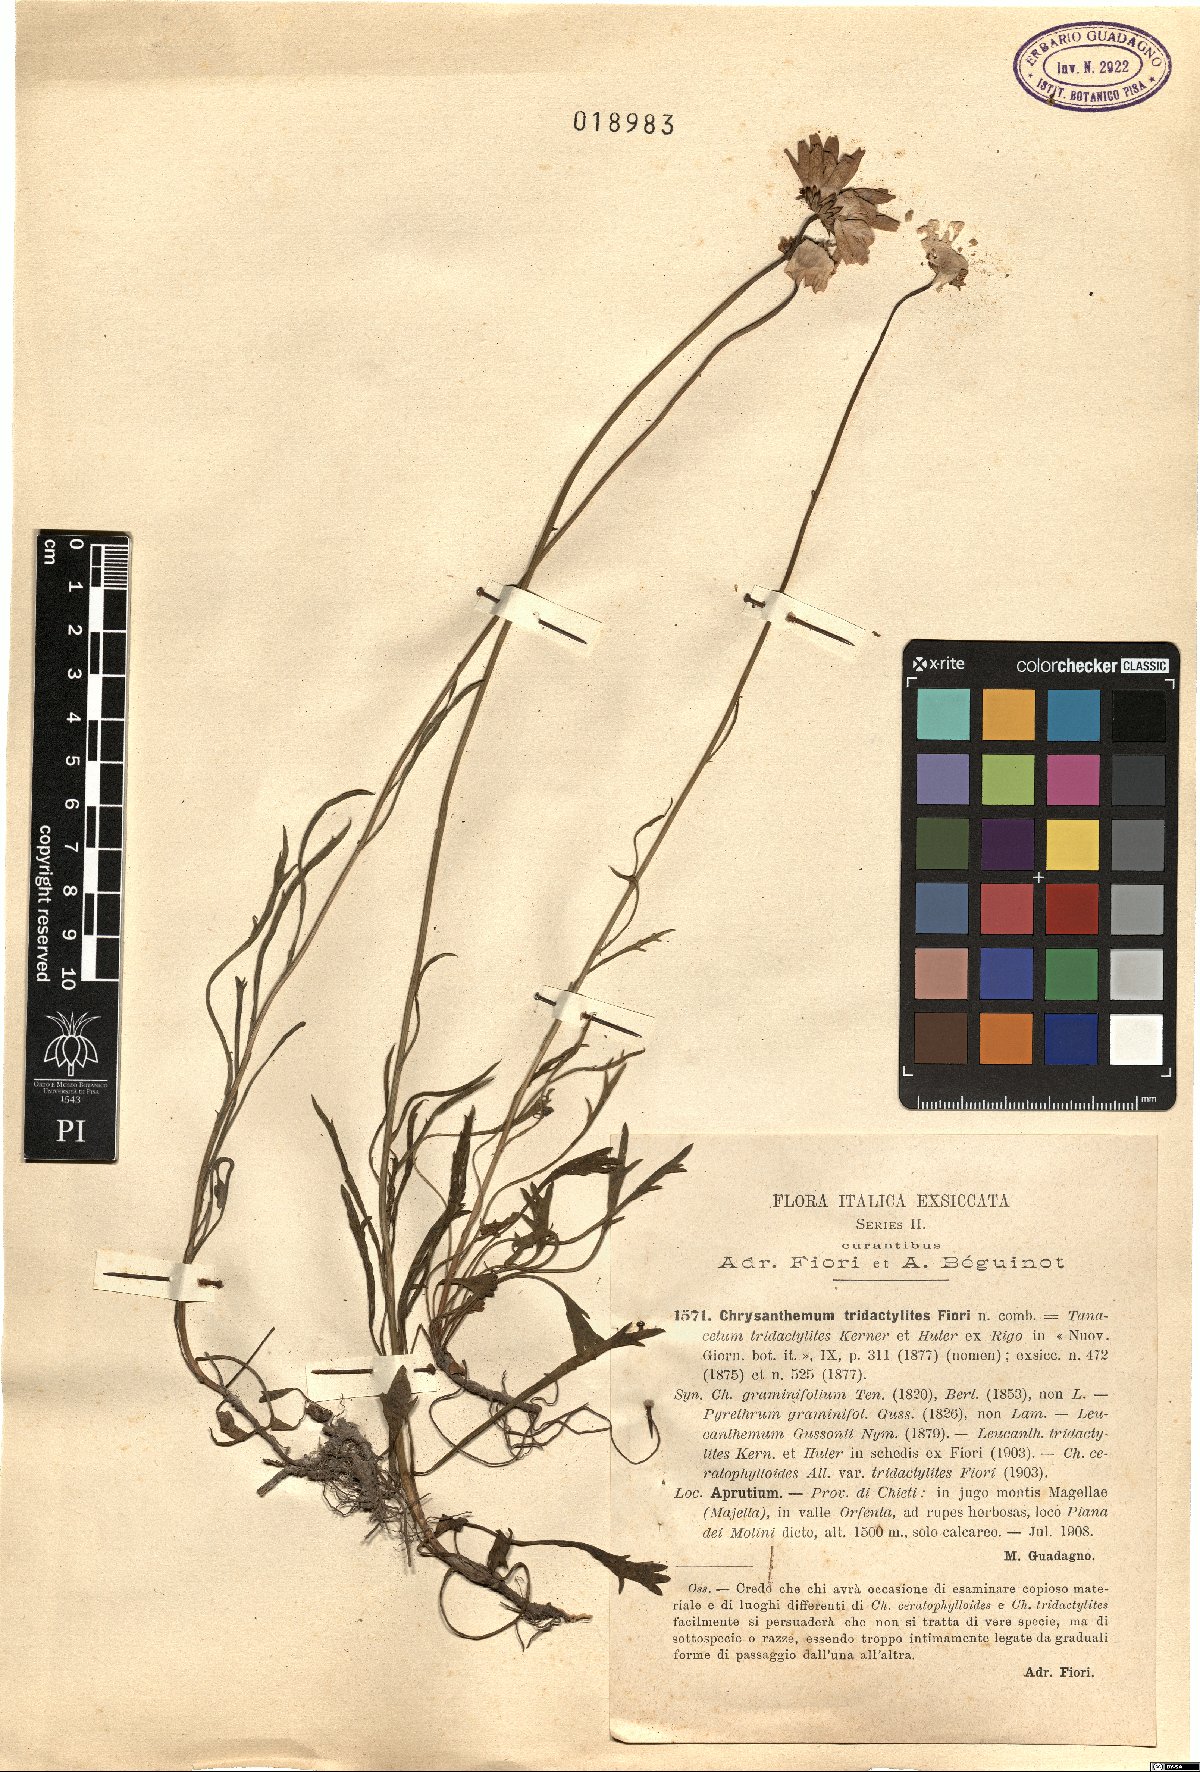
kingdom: Plantae
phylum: Tracheophyta
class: Magnoliopsida
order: Asterales
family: Asteraceae
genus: Leucanthemum
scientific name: Leucanthemum tridactylites
